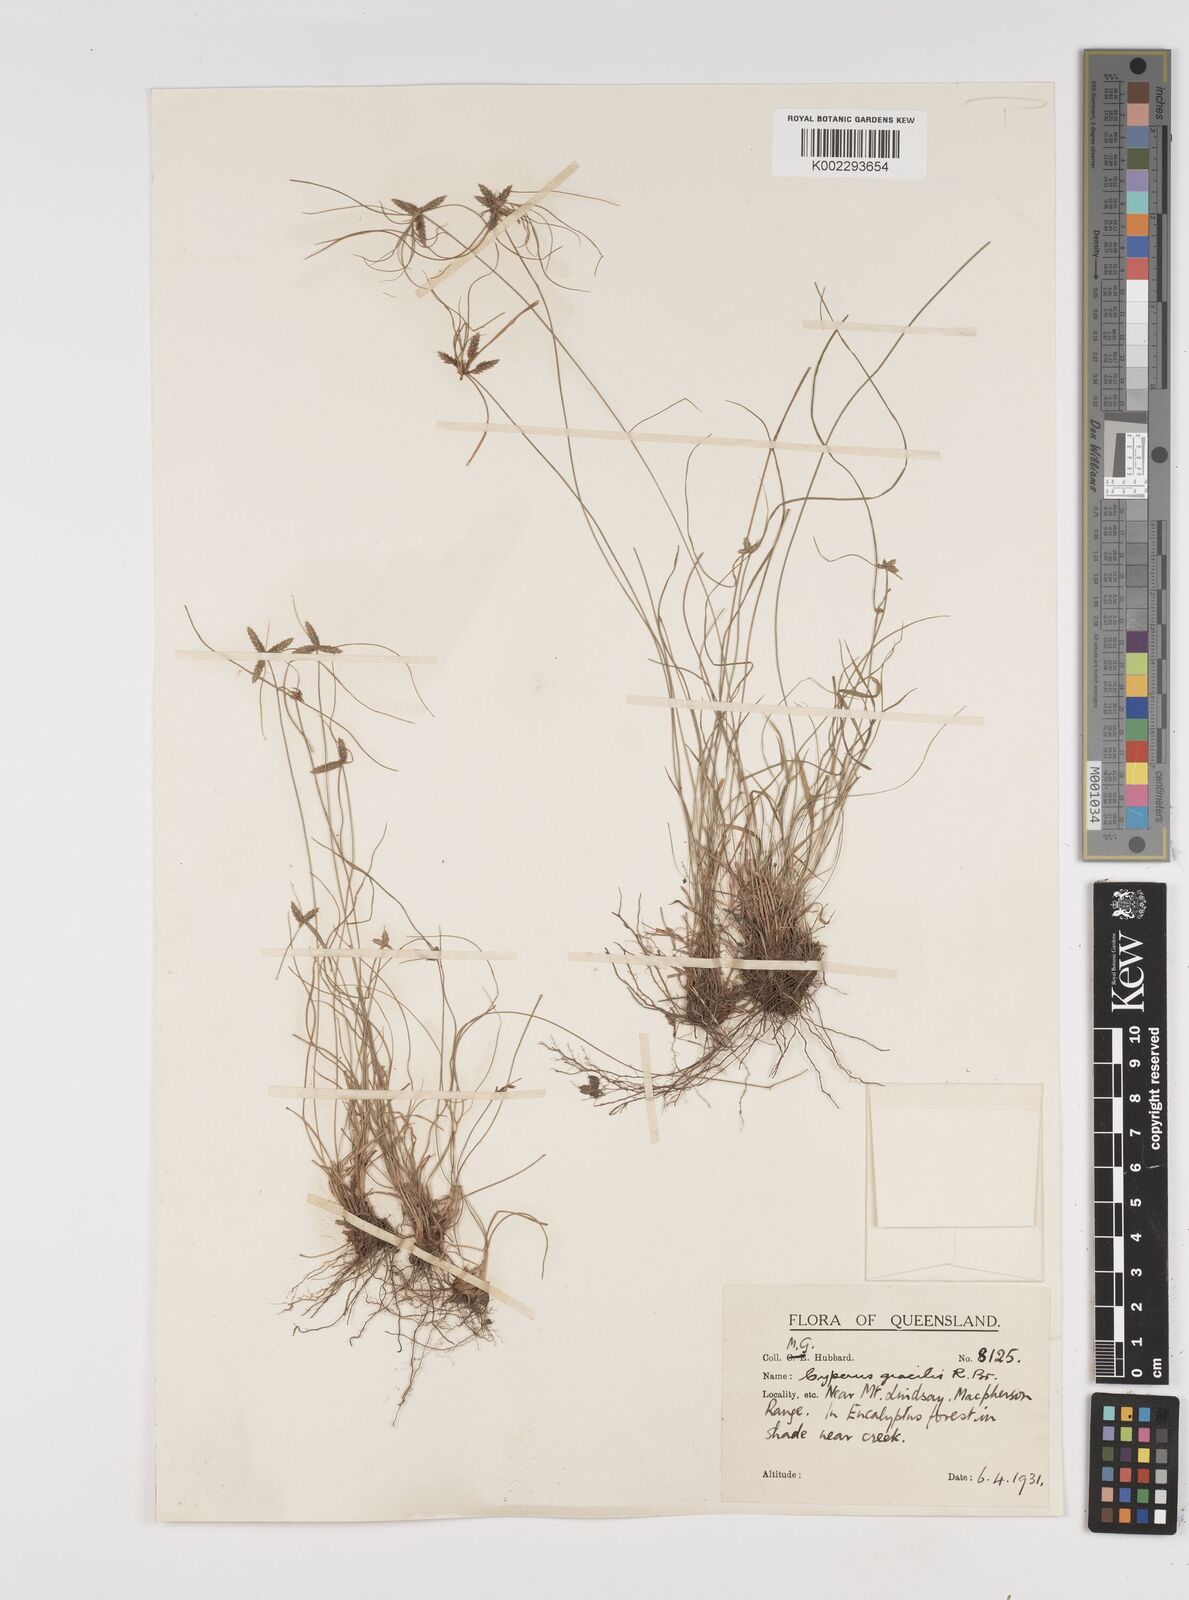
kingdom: Plantae
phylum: Tracheophyta
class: Liliopsida
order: Poales
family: Cyperaceae
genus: Cyperus
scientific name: Cyperus gracilis
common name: Slimjim flatsedge
